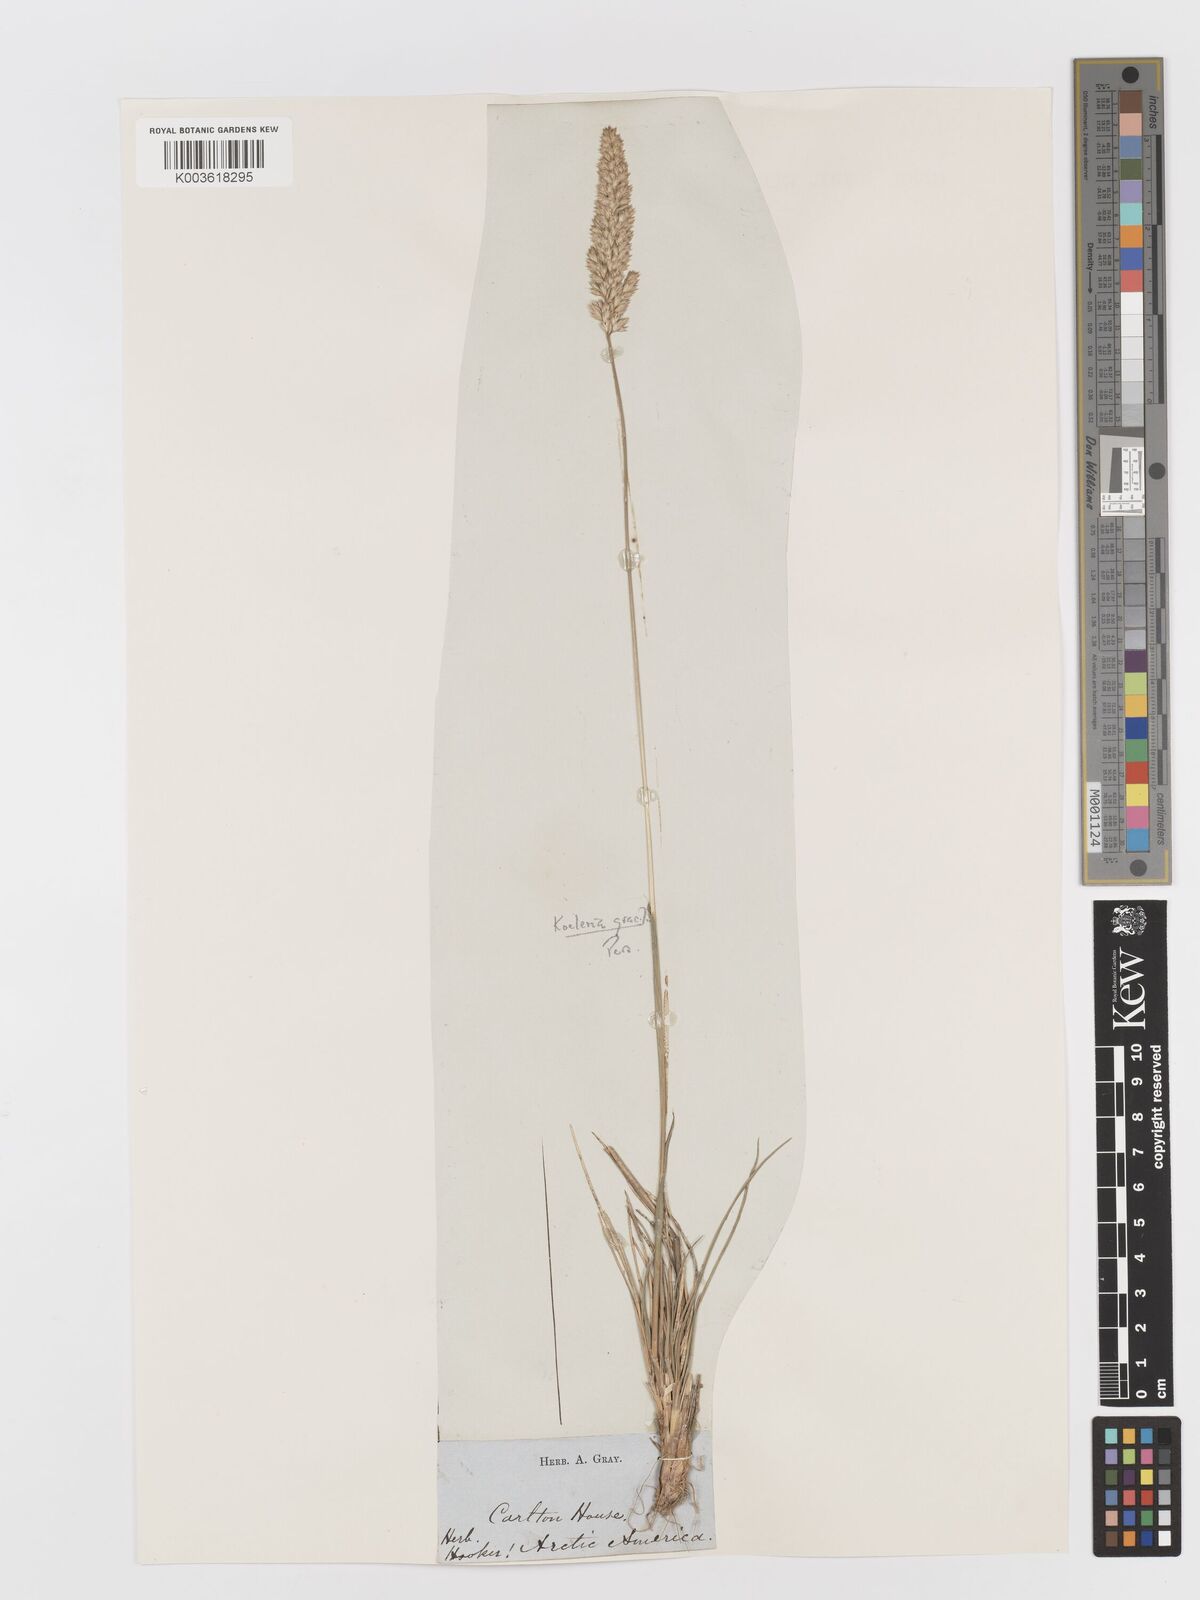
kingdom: Plantae
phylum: Tracheophyta
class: Liliopsida
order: Poales
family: Poaceae
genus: Koeleria
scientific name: Koeleria macrantha
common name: Crested hair-grass
